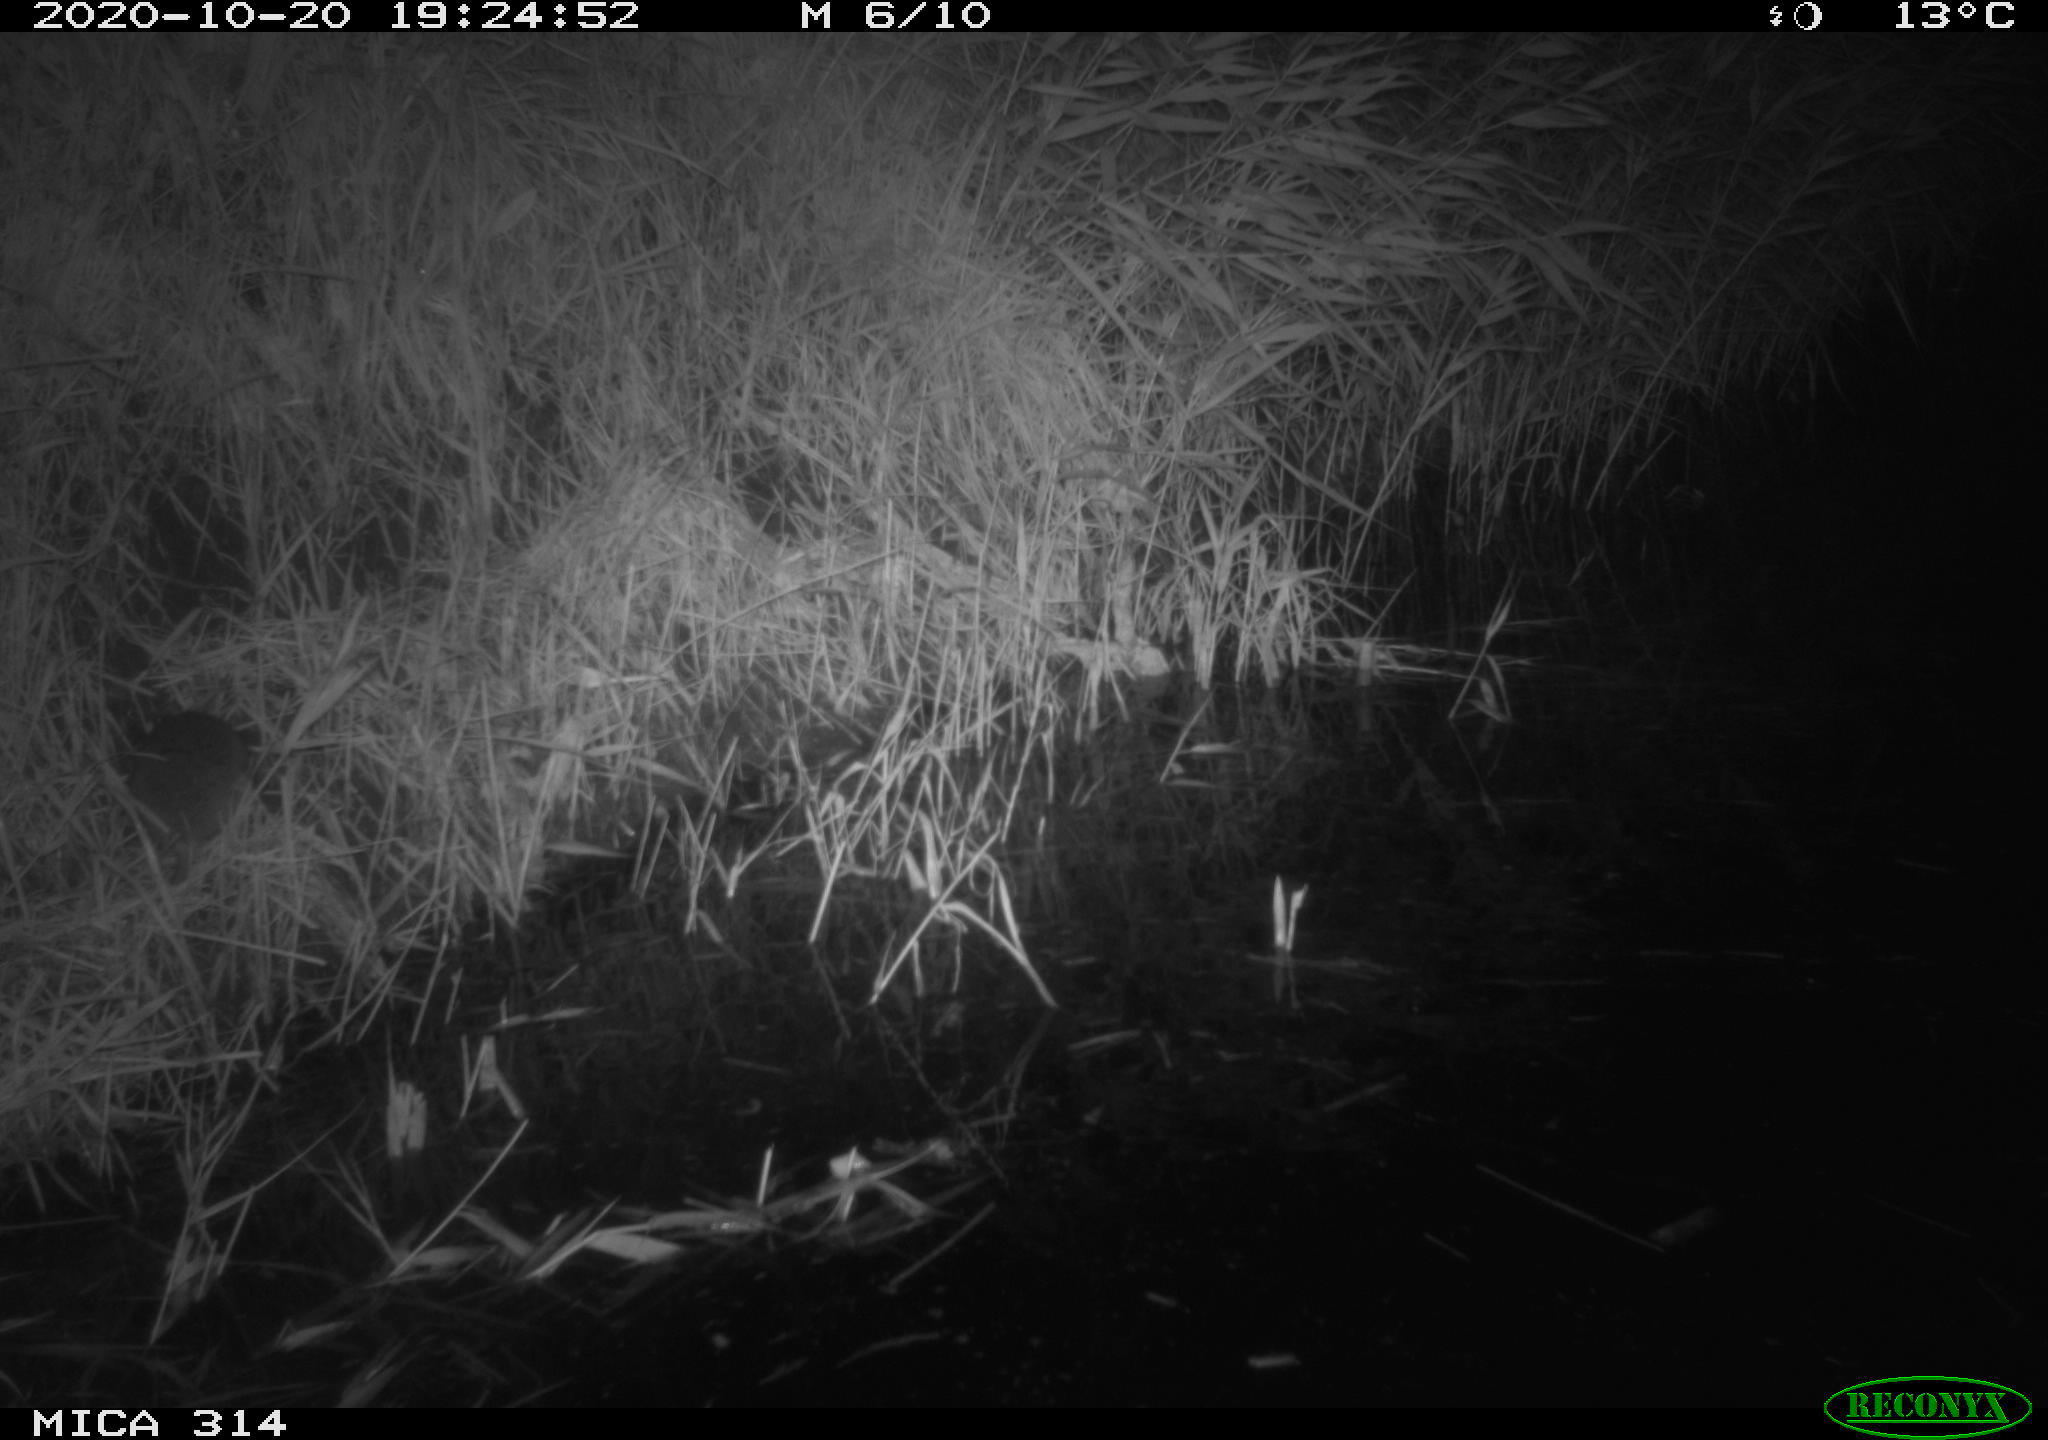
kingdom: Animalia
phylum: Chordata
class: Mammalia
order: Rodentia
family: Muridae
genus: Rattus
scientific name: Rattus norvegicus
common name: Brown rat
